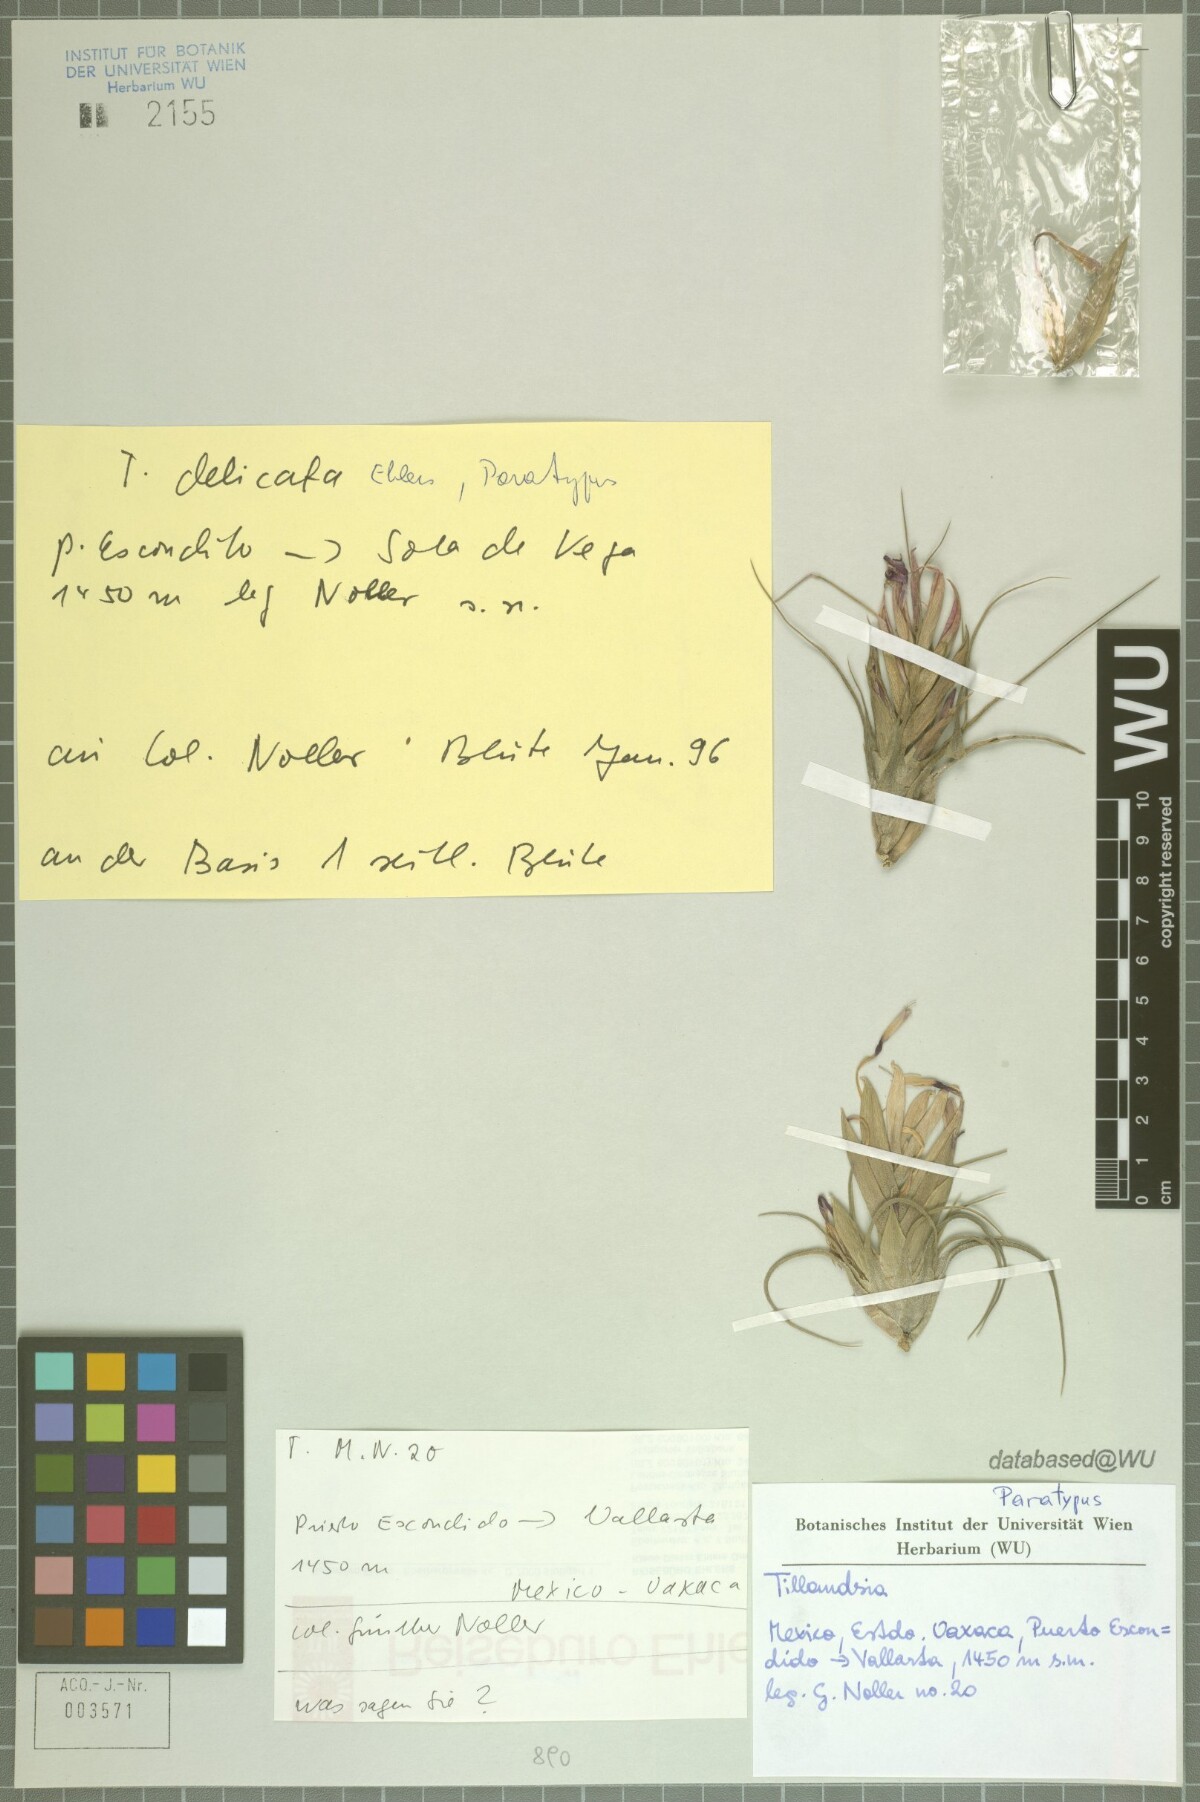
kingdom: Plantae
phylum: Tracheophyta
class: Liliopsida
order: Poales
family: Bromeliaceae
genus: Tillandsia
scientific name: Tillandsia delicata
